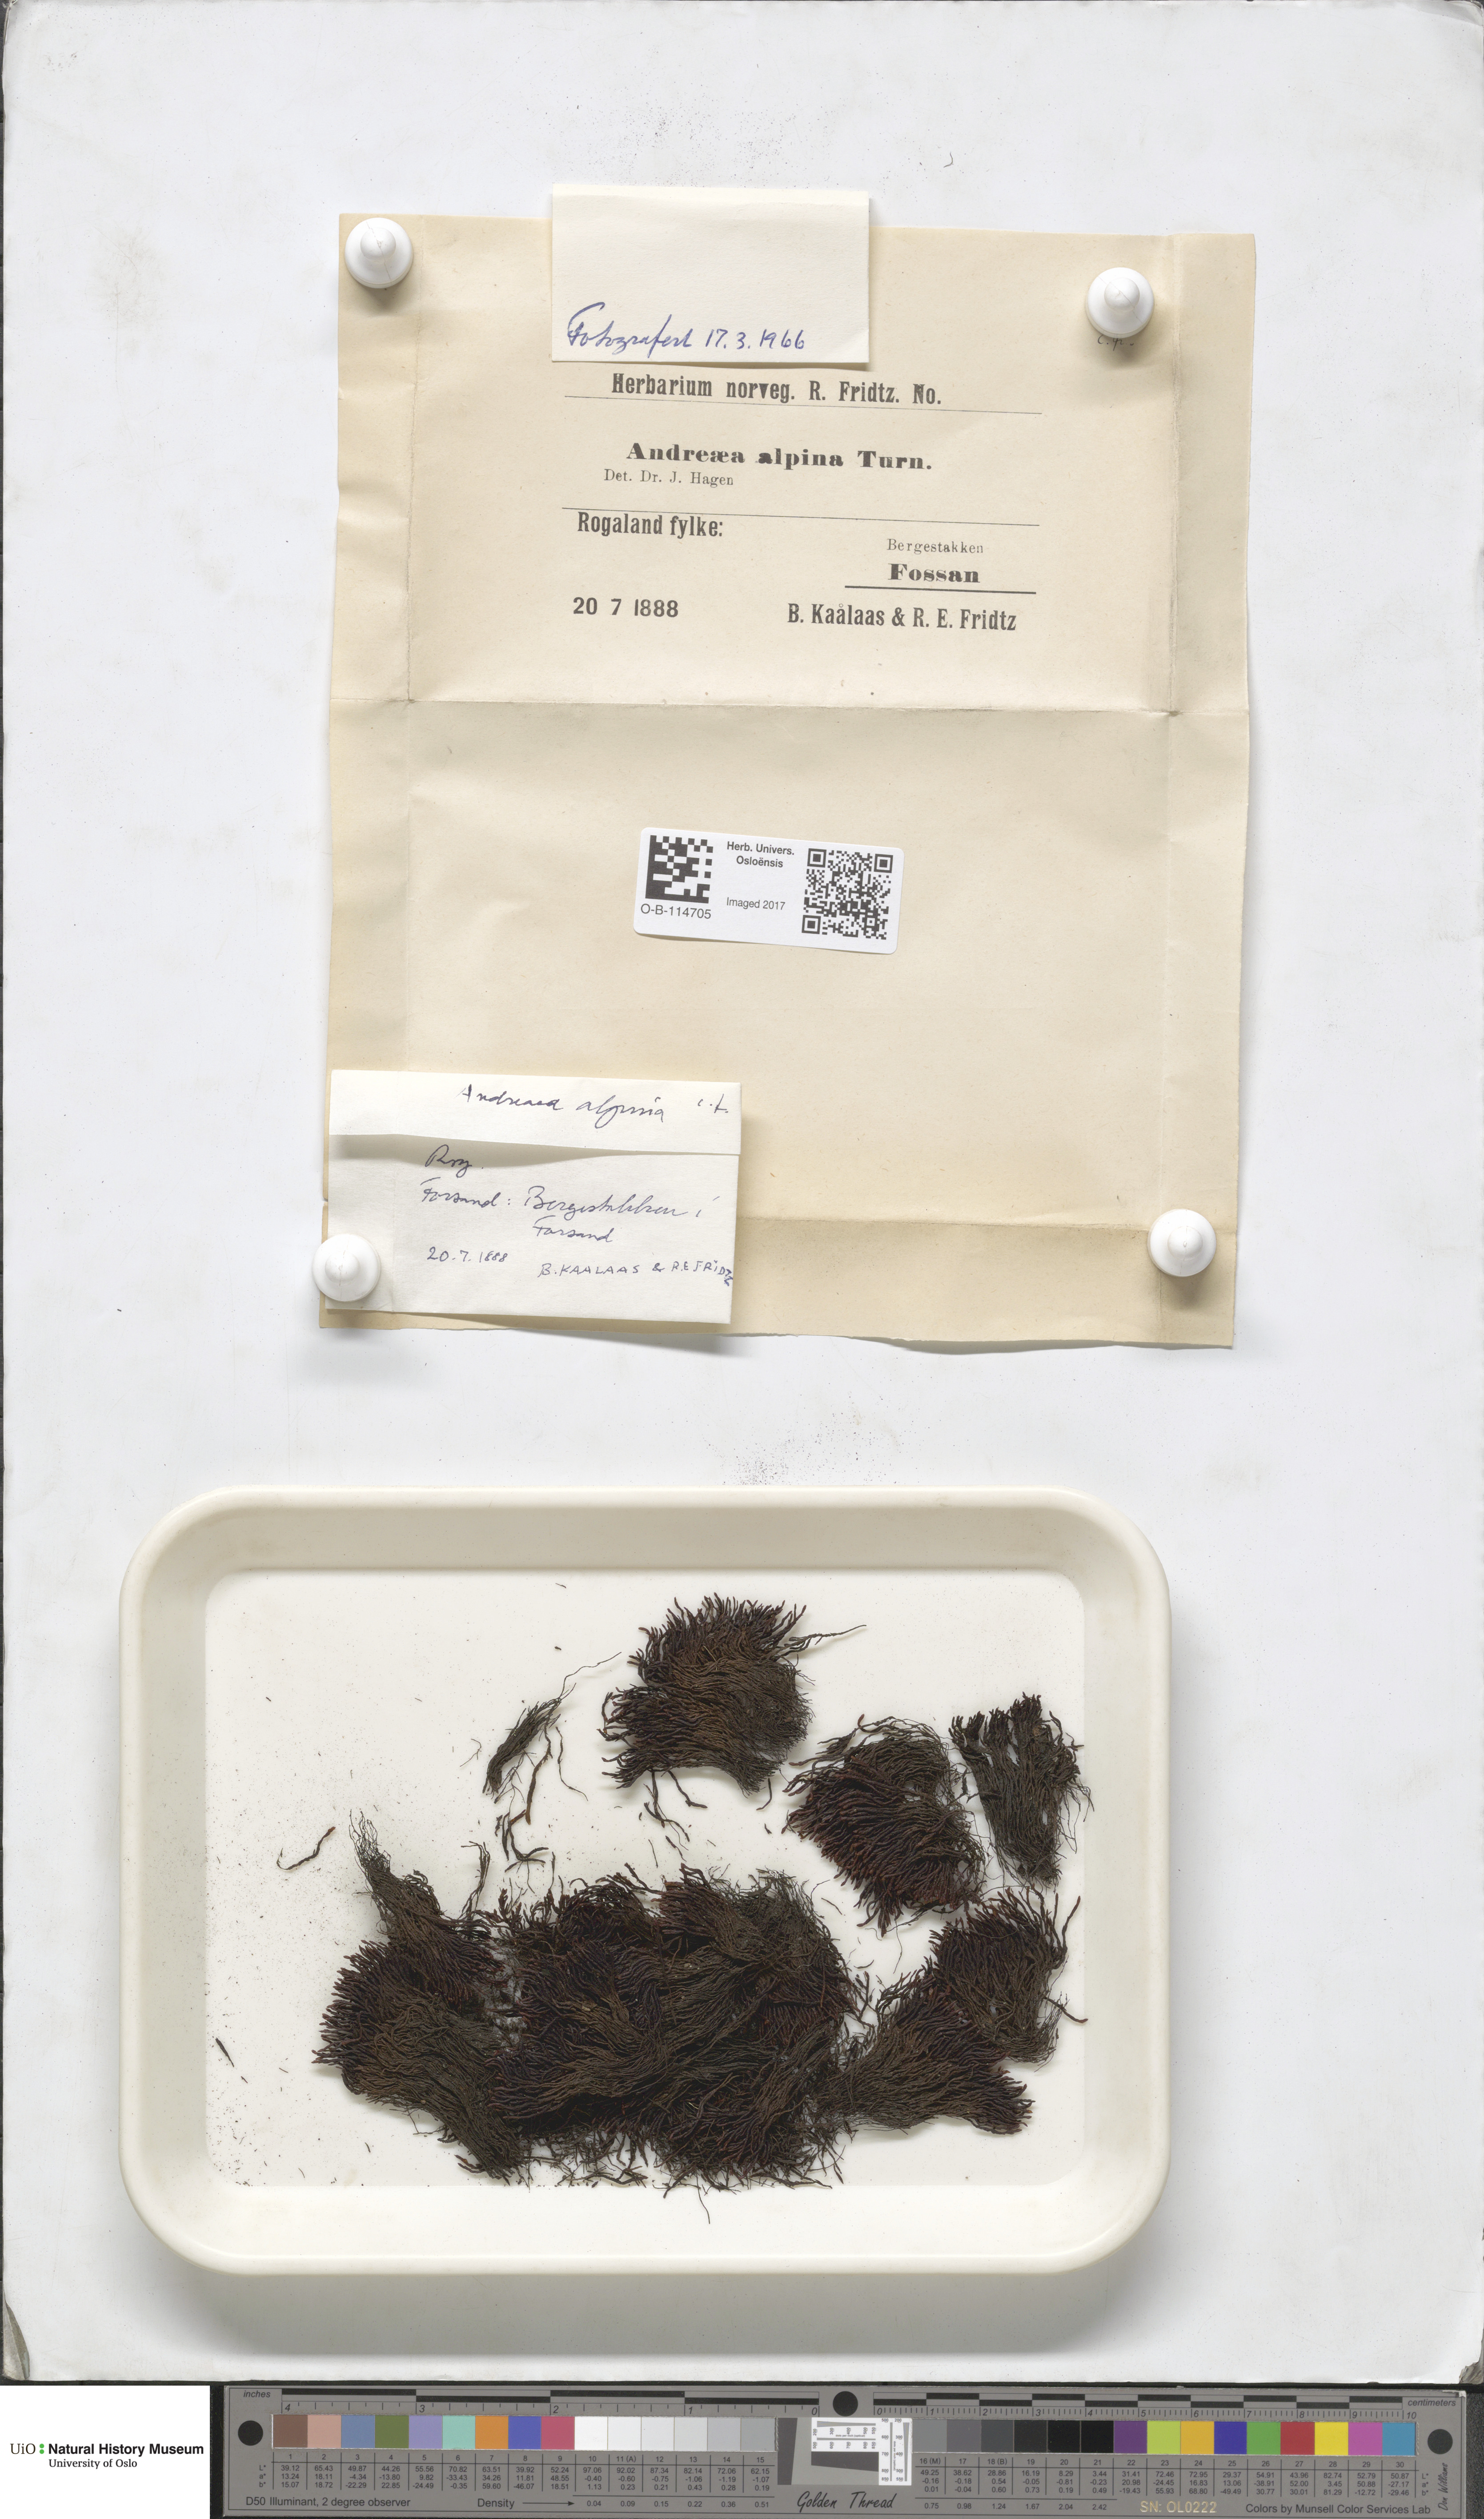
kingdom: Plantae
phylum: Bryophyta
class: Andreaeopsida
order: Andreaeales
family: Andreaeaceae
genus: Andreaea
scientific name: Andreaea hookeri
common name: Alpine rock-moss
